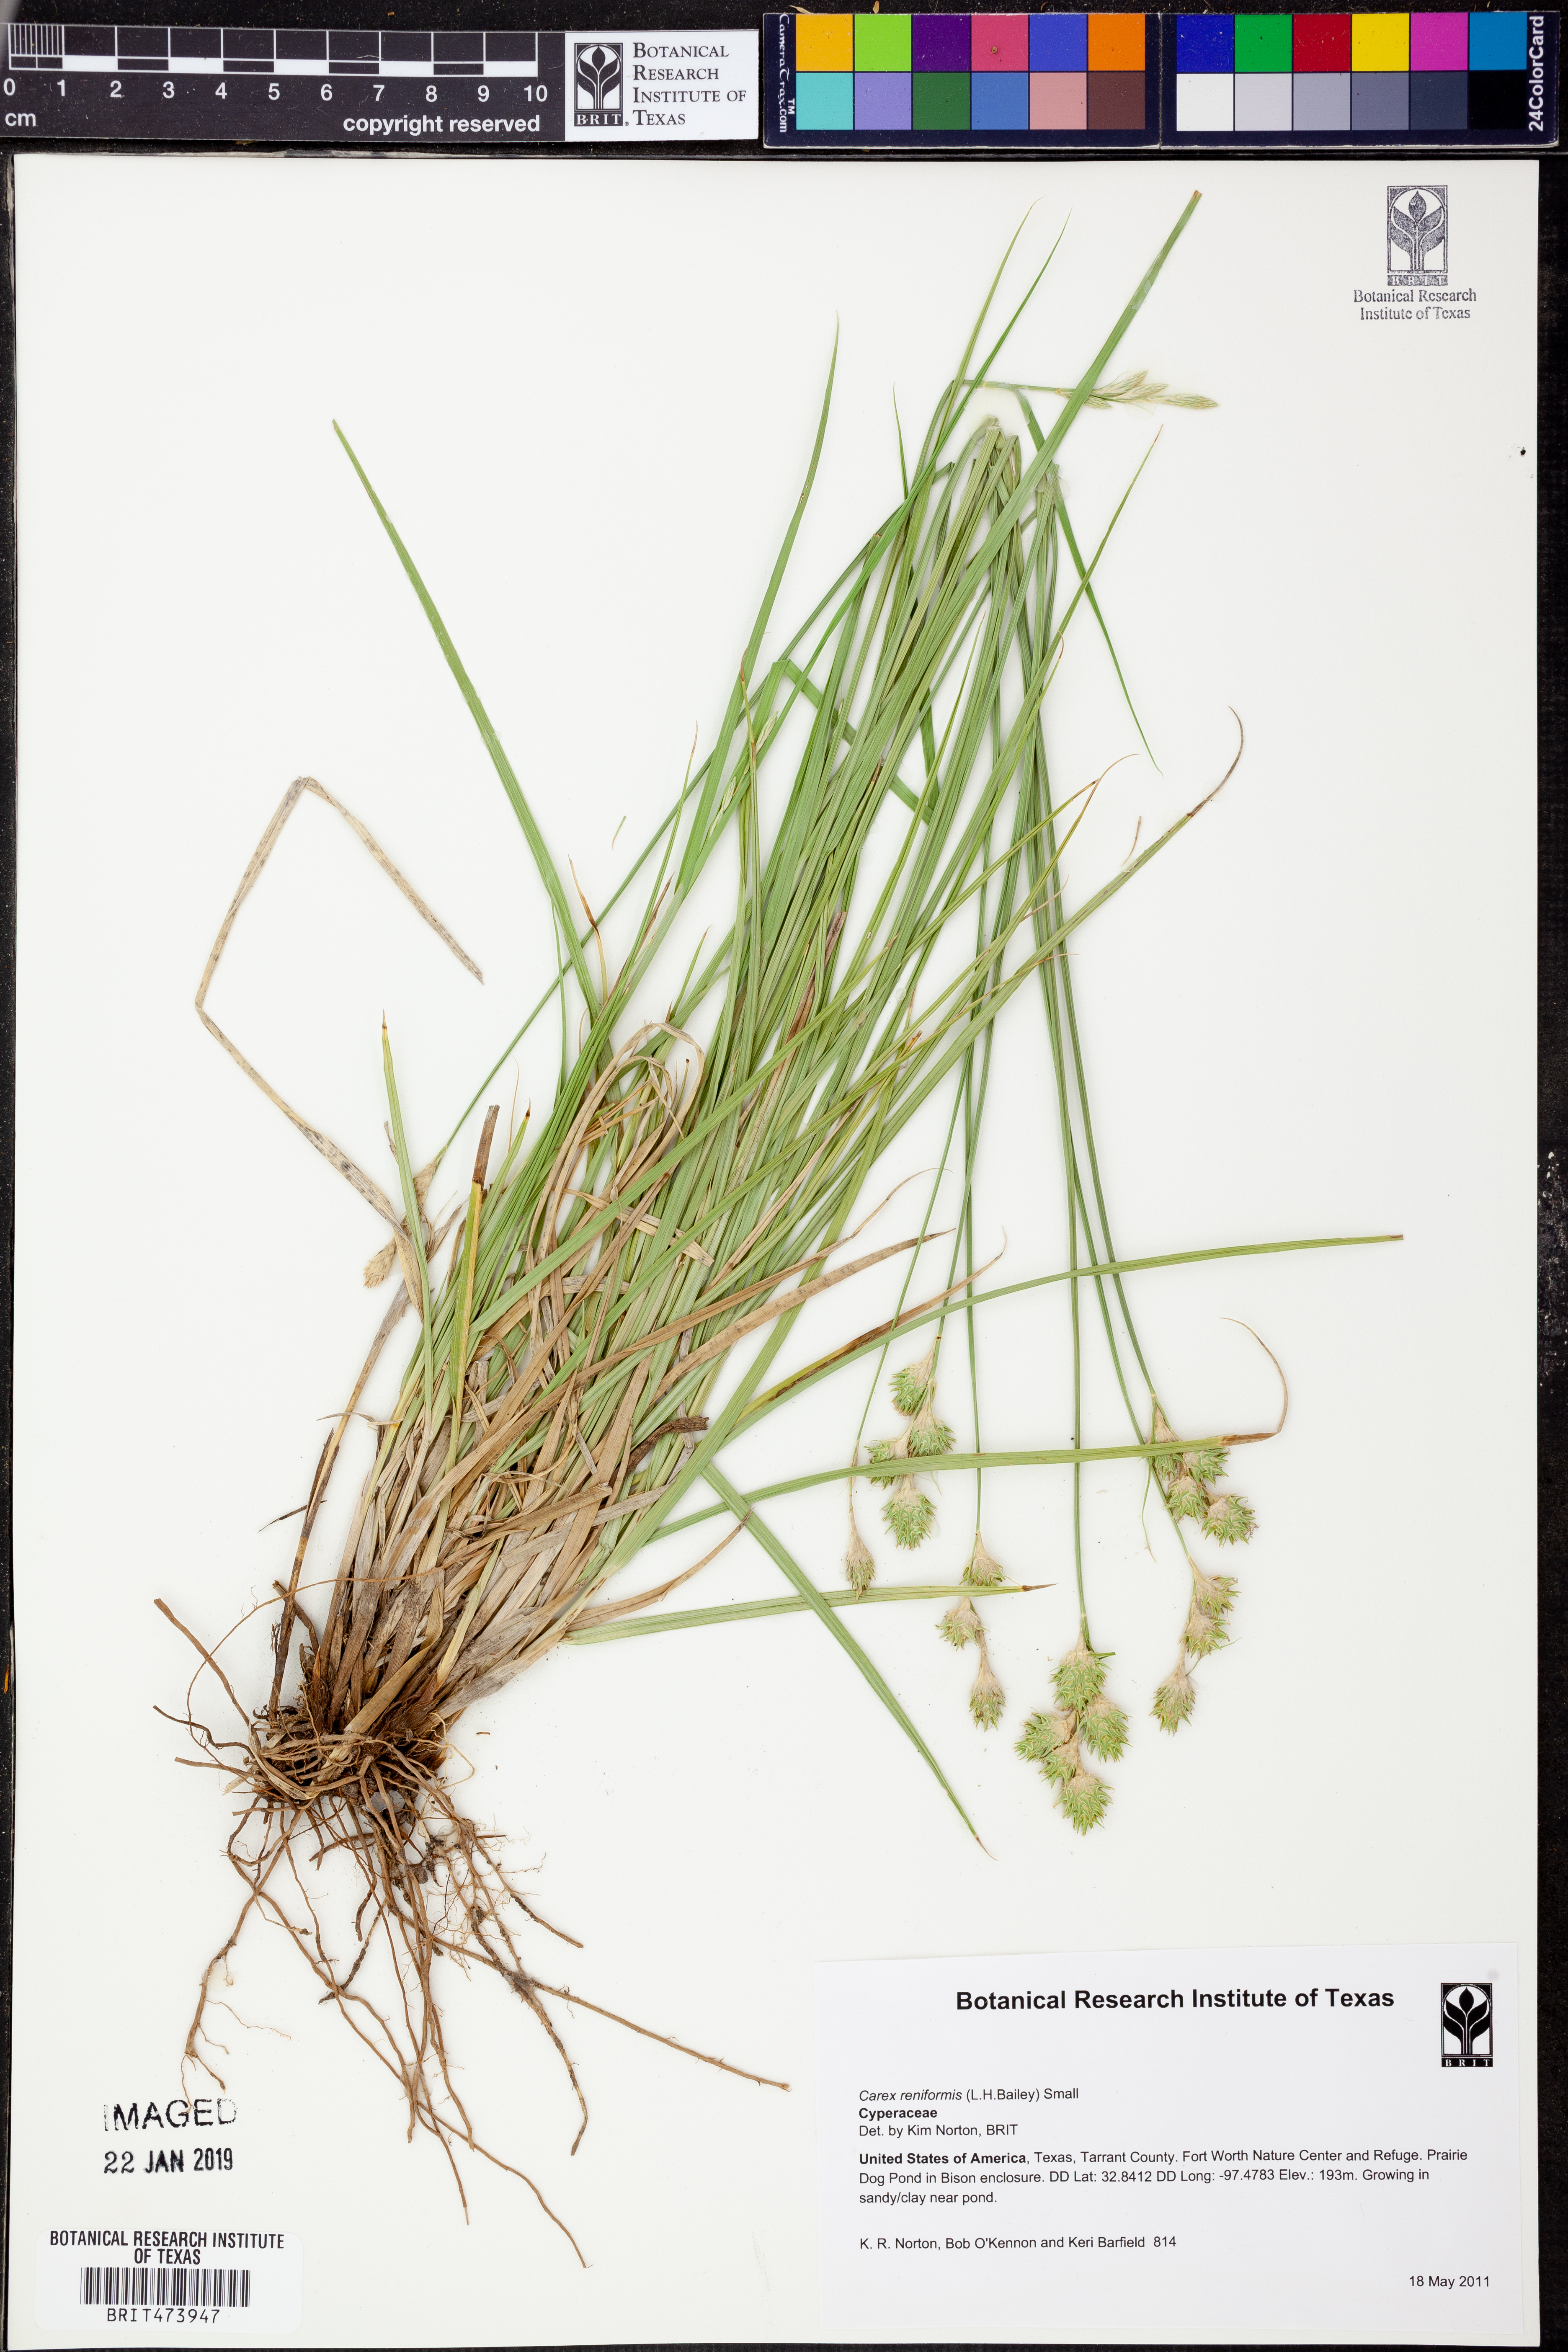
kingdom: Plantae
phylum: Tracheophyta
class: Liliopsida
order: Poales
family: Cyperaceae
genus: Carex
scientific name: Carex reniformis
